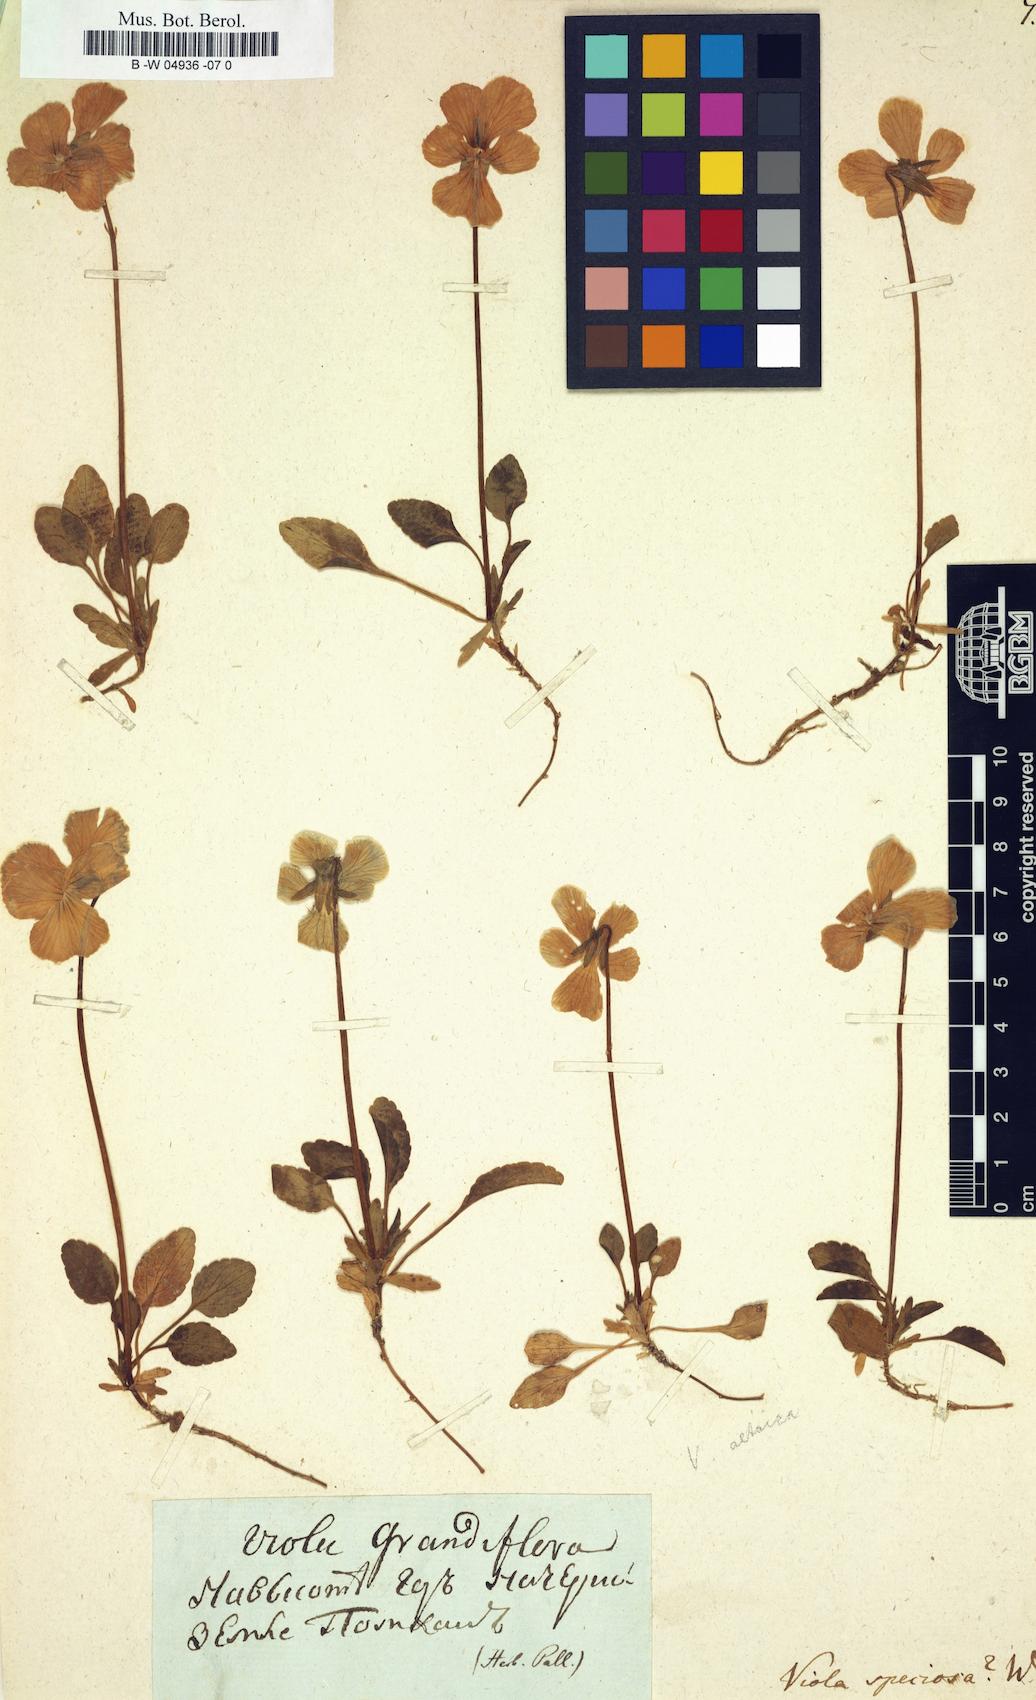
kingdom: Plantae
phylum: Tracheophyta
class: Magnoliopsida
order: Malpighiales
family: Violaceae
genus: Viola
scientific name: Viola
